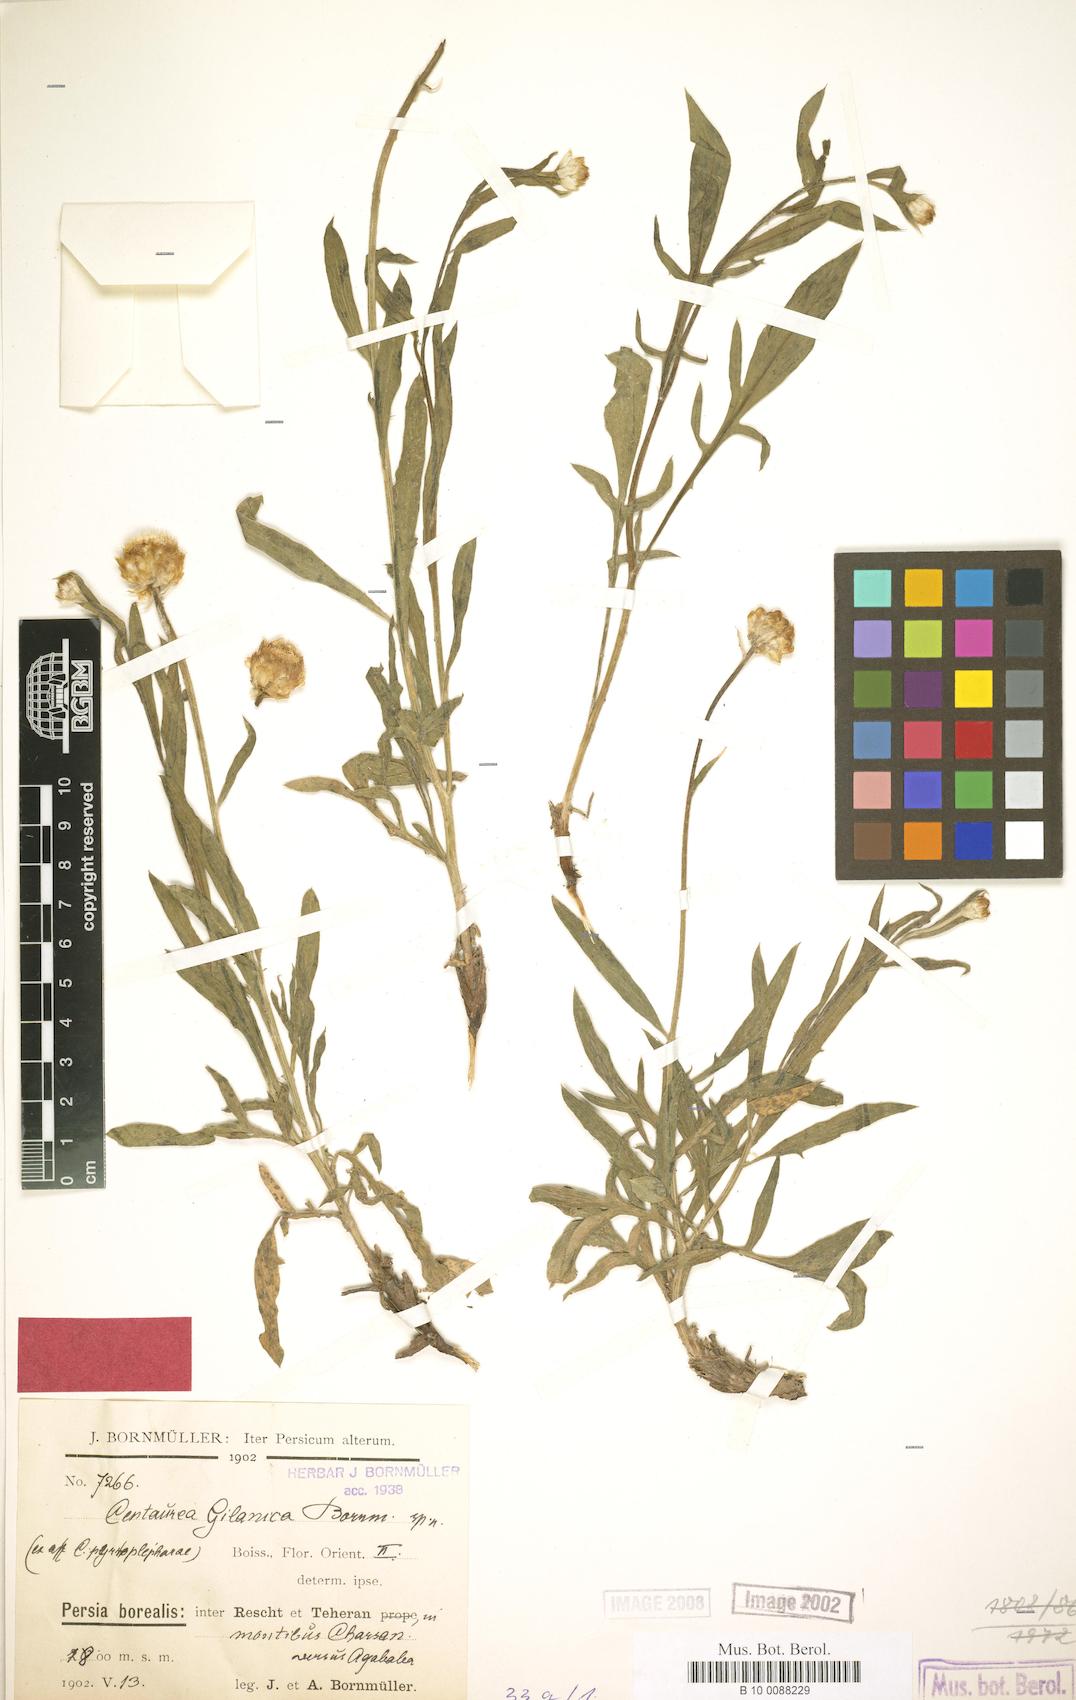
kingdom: Plantae
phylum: Tracheophyta
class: Magnoliopsida
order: Asterales
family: Asteraceae
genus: Psephellus
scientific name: Psephellus gilanicus
